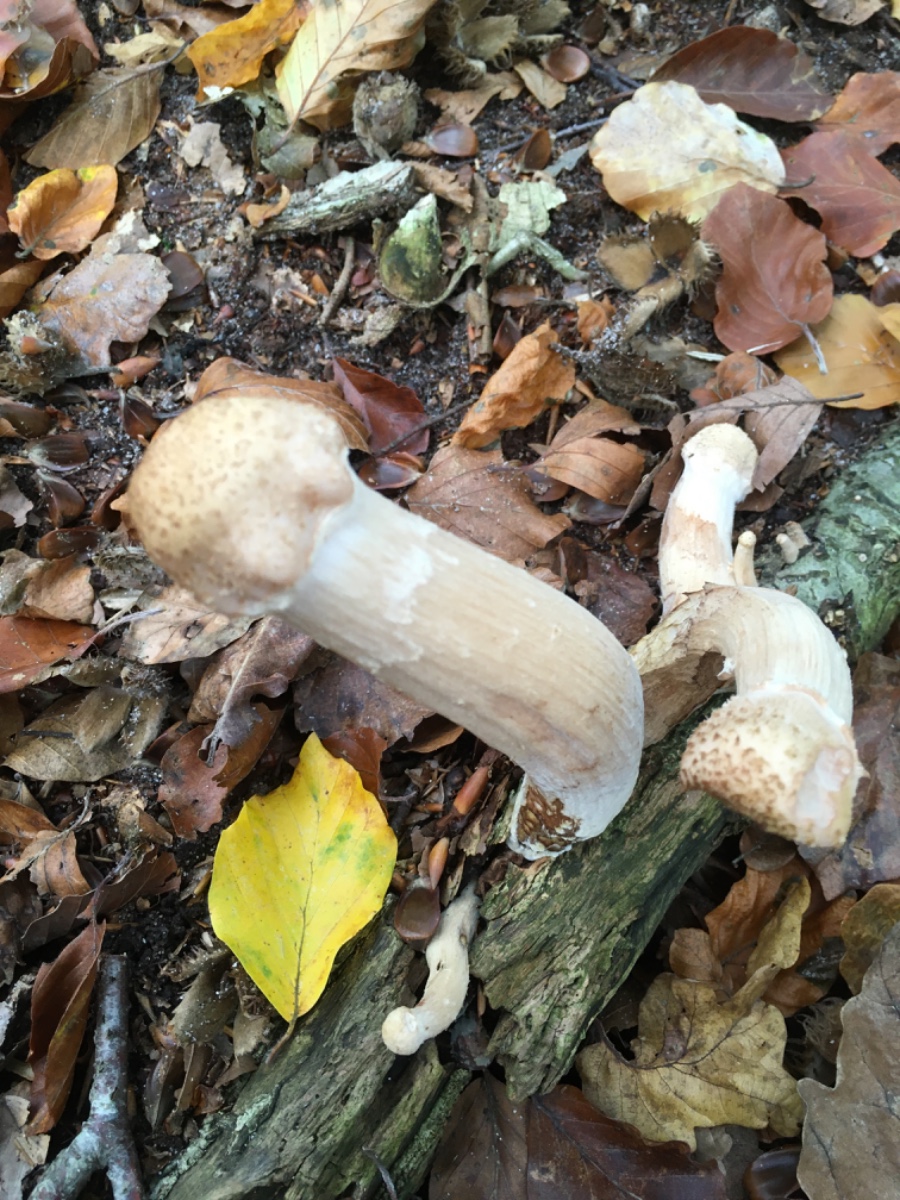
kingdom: Fungi
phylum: Basidiomycota
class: Agaricomycetes
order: Agaricales
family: Physalacriaceae
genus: Armillaria
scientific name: Armillaria
